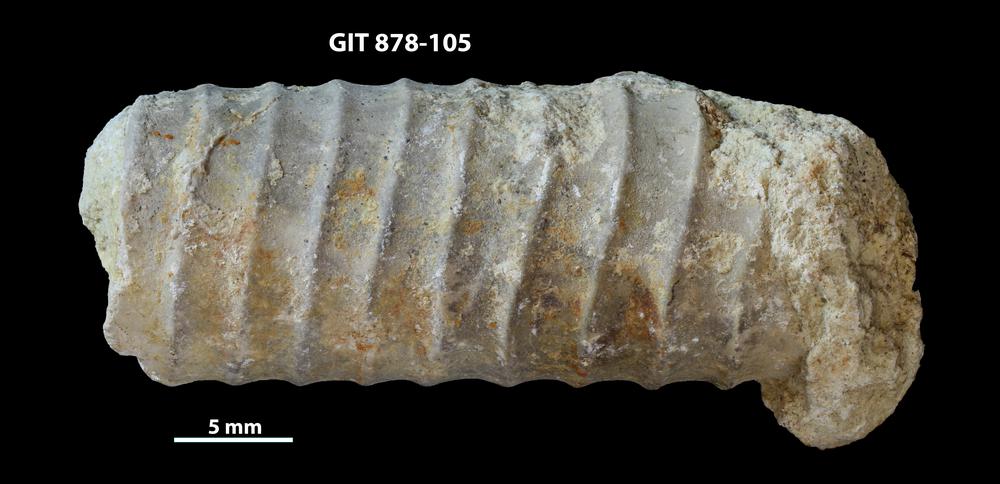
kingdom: Animalia
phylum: Mollusca
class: Cephalopoda
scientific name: Cephalopoda
